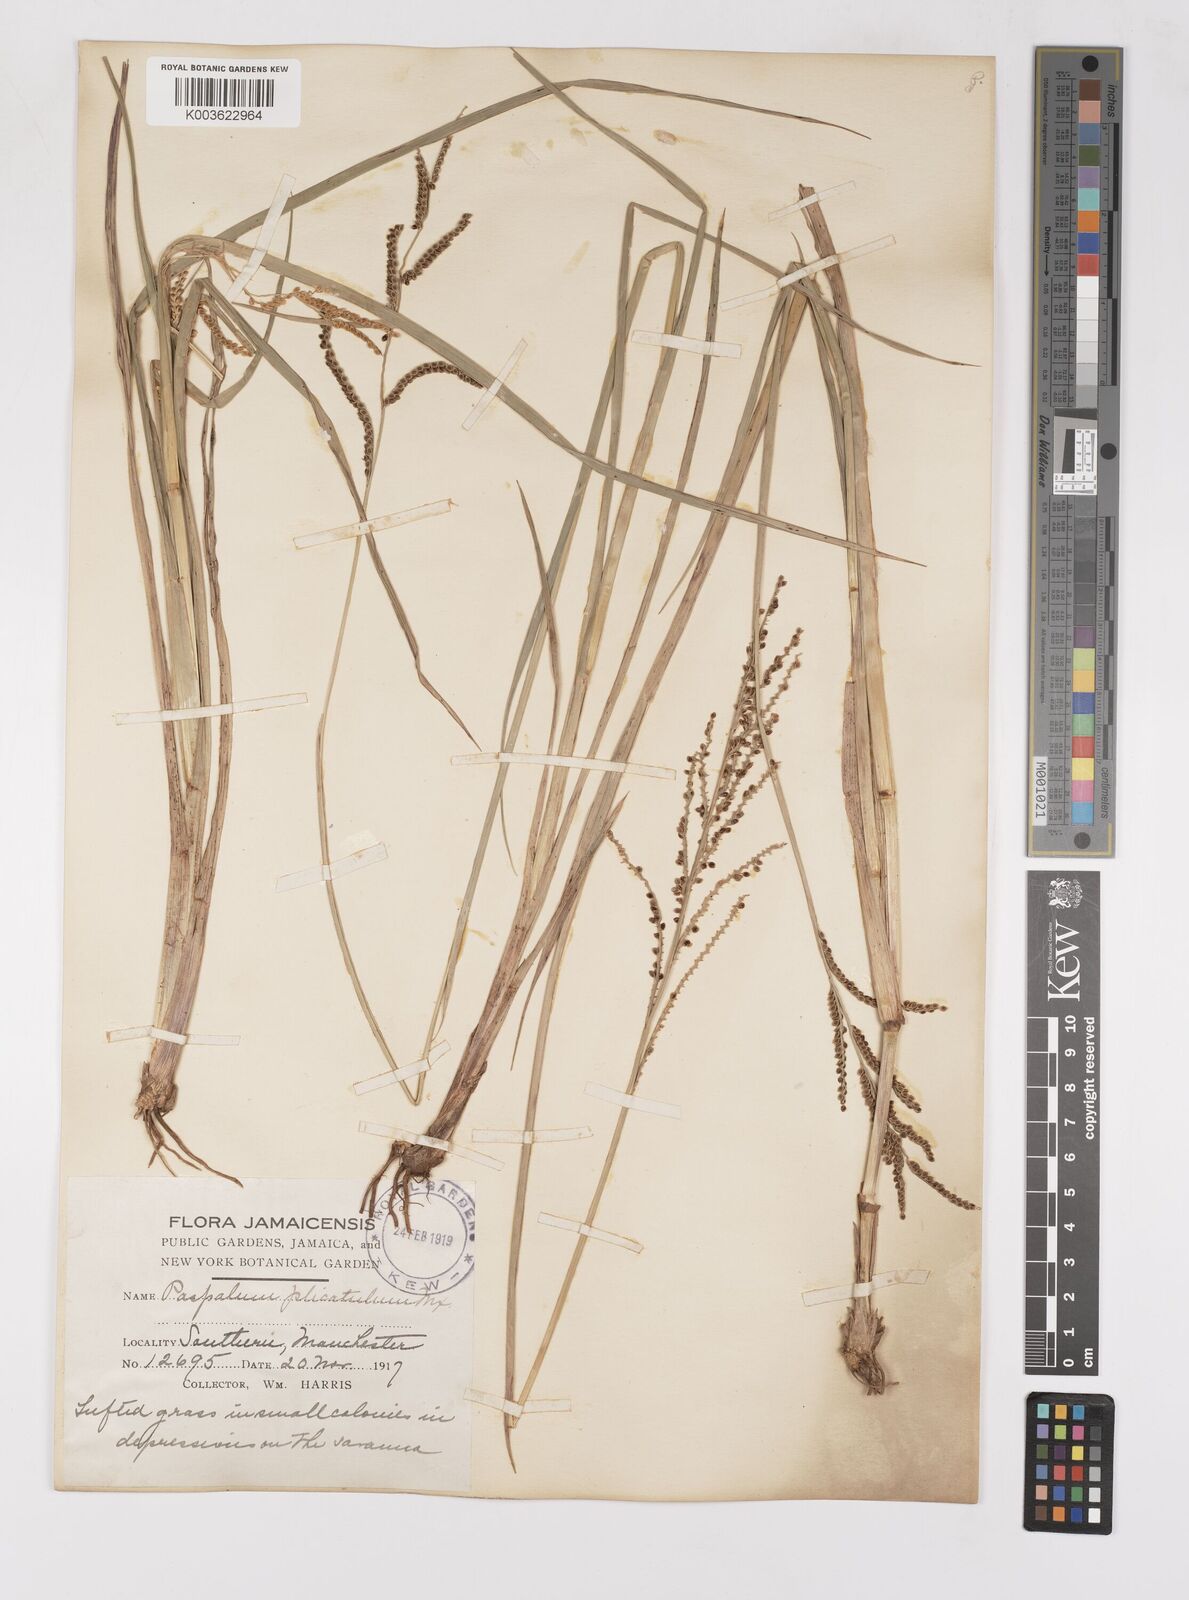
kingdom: Plantae
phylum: Tracheophyta
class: Liliopsida
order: Poales
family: Poaceae
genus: Paspalum
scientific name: Paspalum
